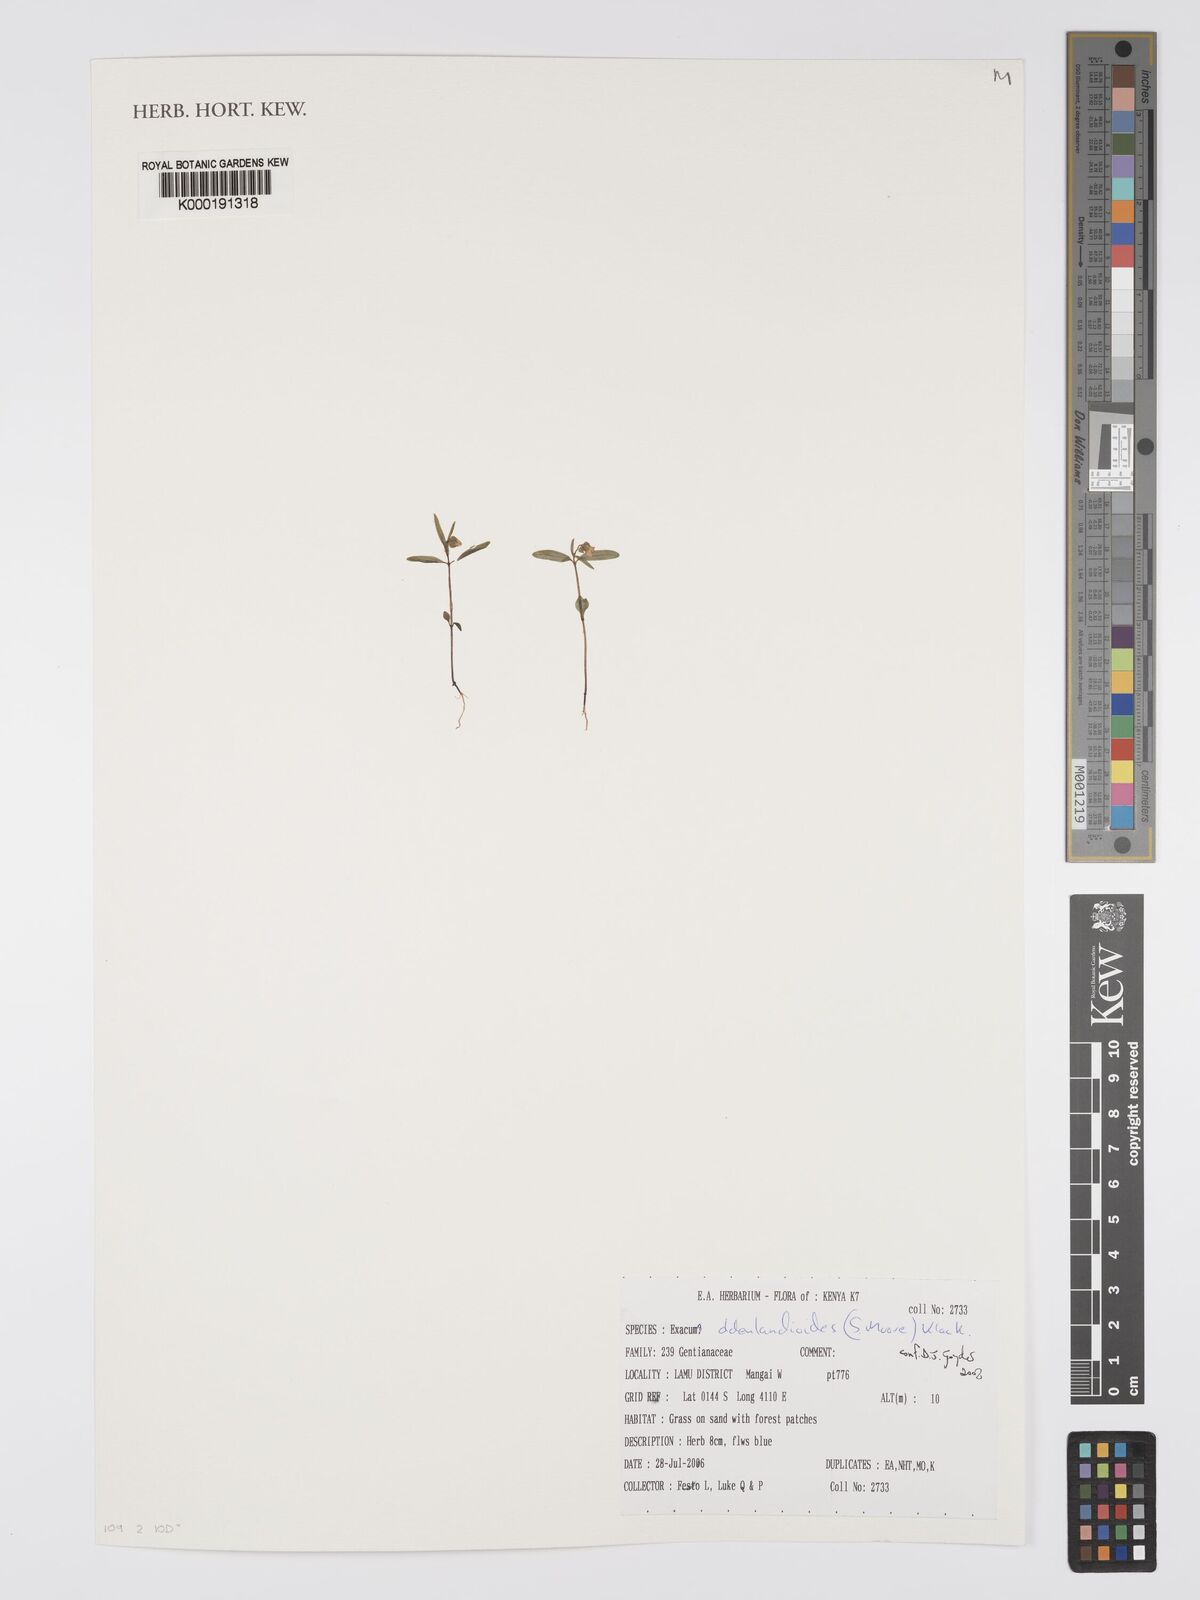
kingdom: Plantae
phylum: Tracheophyta
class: Magnoliopsida
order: Gentianales
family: Gentianaceae
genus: Exacum
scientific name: Exacum oldenlandioides
